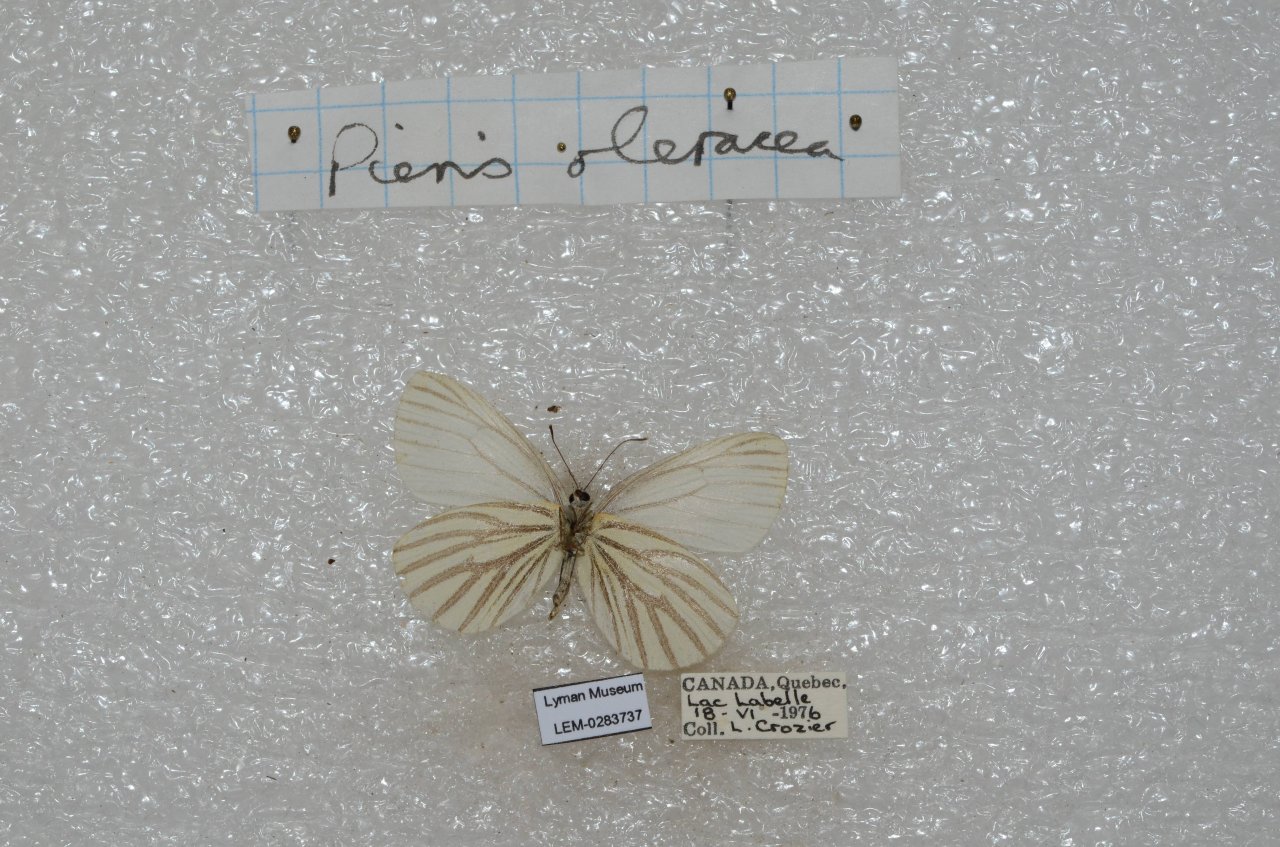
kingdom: Animalia
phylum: Arthropoda
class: Insecta
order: Lepidoptera
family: Pieridae
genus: Pieris
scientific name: Pieris oleracea
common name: Mustard White
